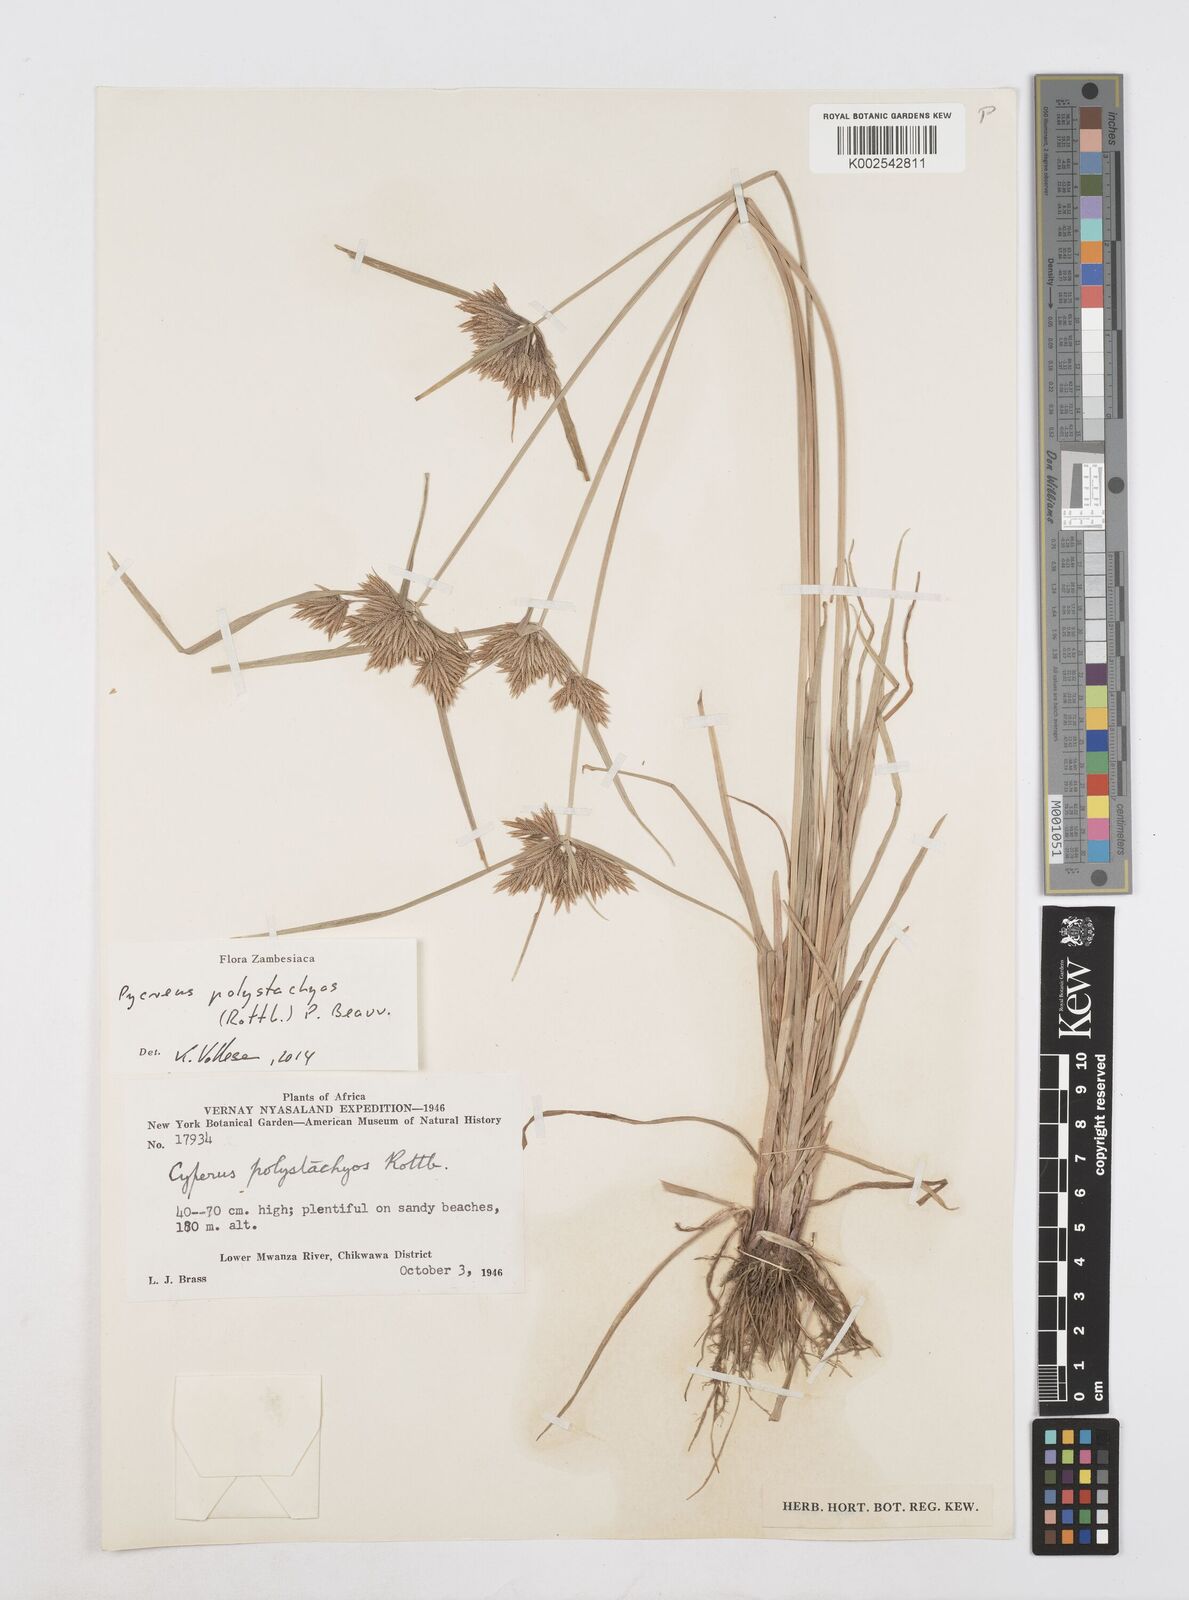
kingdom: Plantae
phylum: Tracheophyta
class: Liliopsida
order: Poales
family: Cyperaceae
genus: Cyperus
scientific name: Cyperus polystachyos
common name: Bunchy flat sedge
